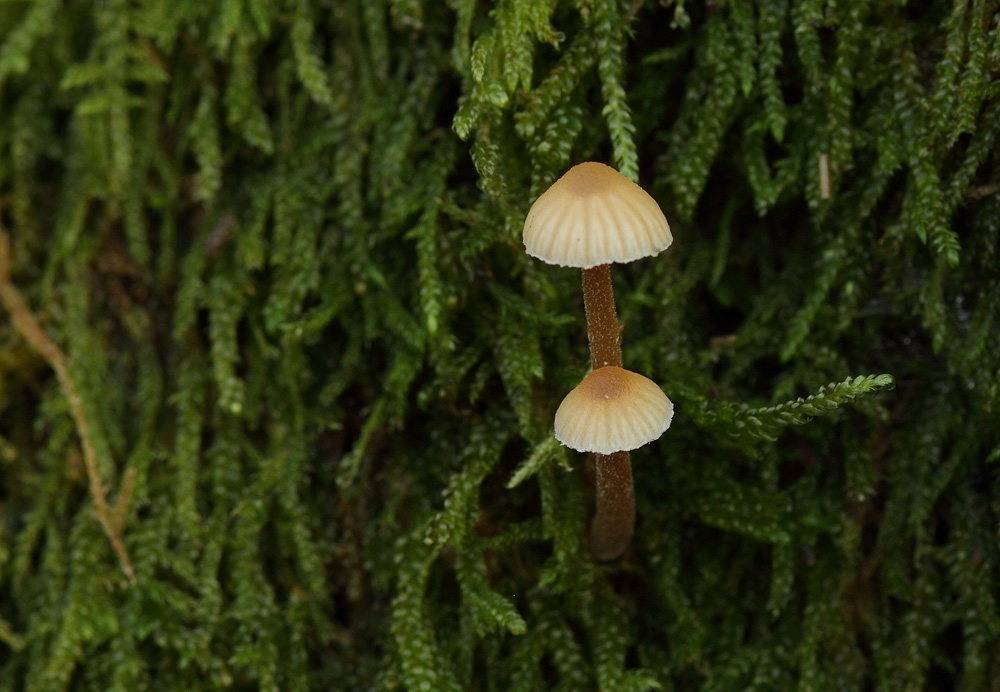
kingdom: Fungi
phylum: Basidiomycota
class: Agaricomycetes
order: Agaricales
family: Hymenogastraceae
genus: Galerina
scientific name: Galerina vittiformis
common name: Hairy leg bell
